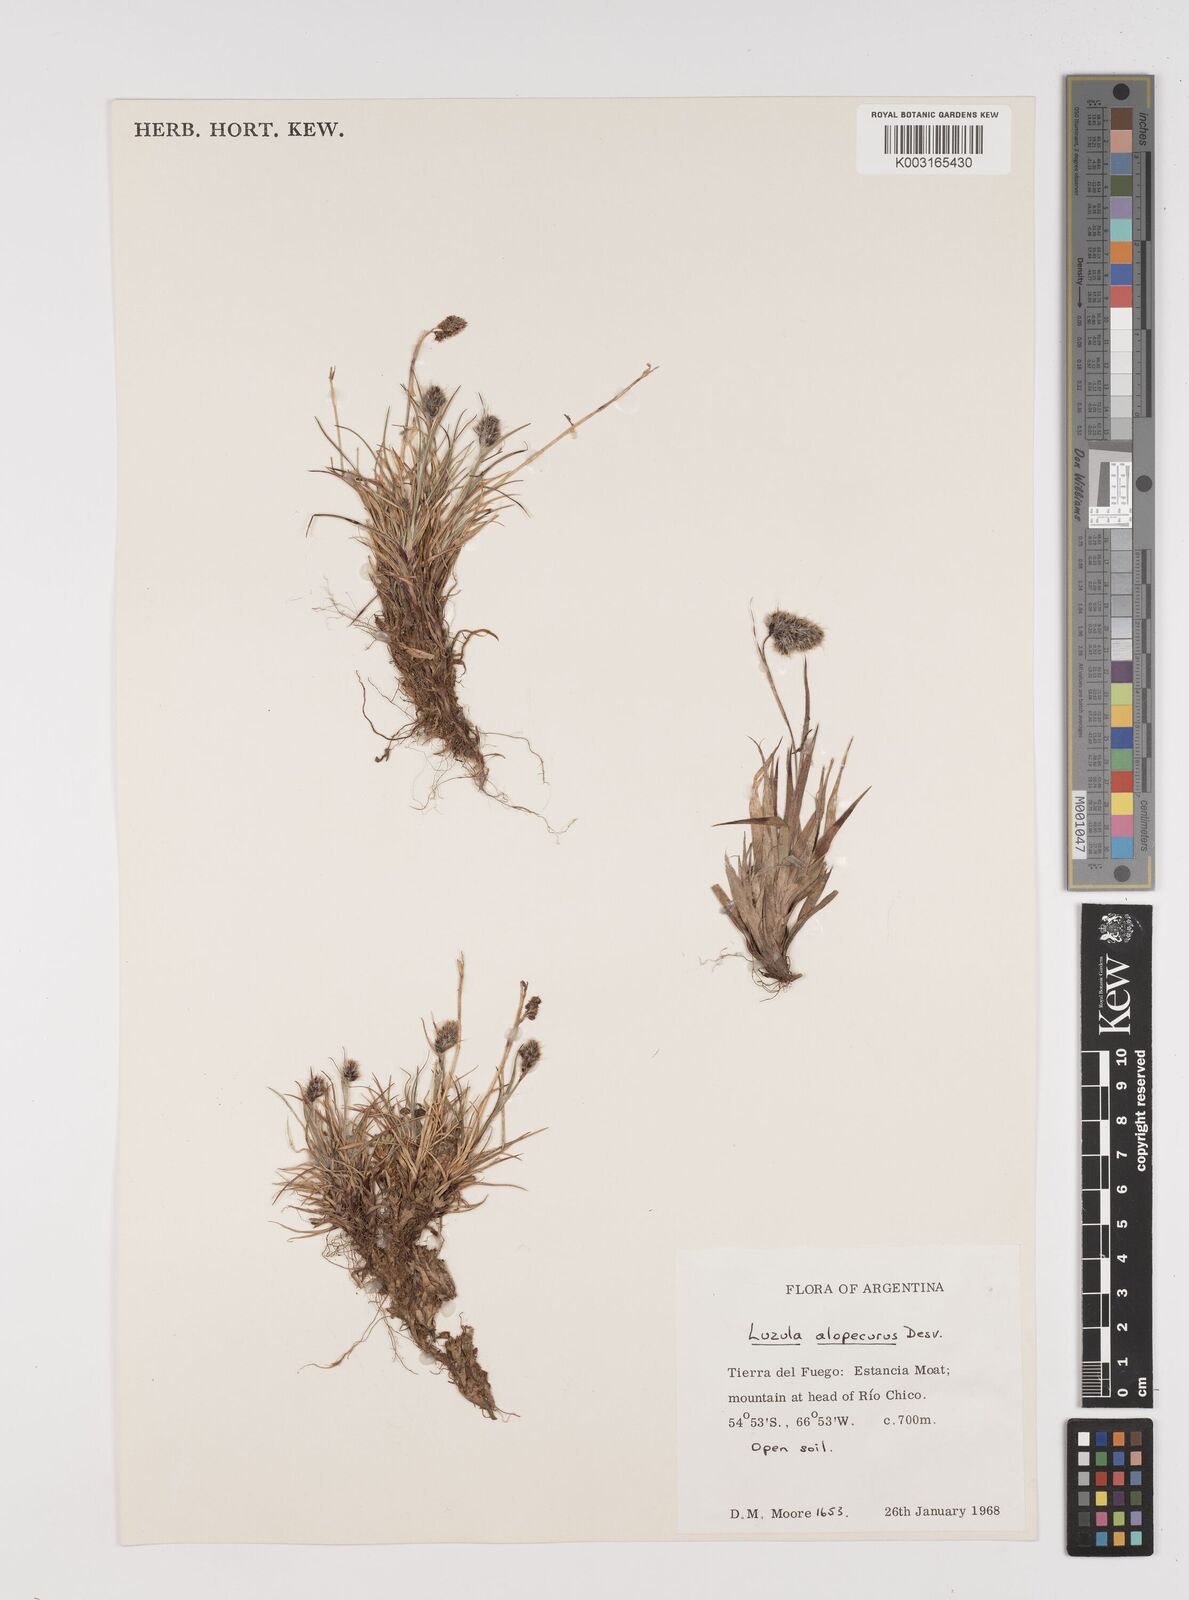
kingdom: Plantae
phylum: Tracheophyta
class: Liliopsida
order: Poales
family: Juncaceae
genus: Luzula
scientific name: Luzula alopecurus
